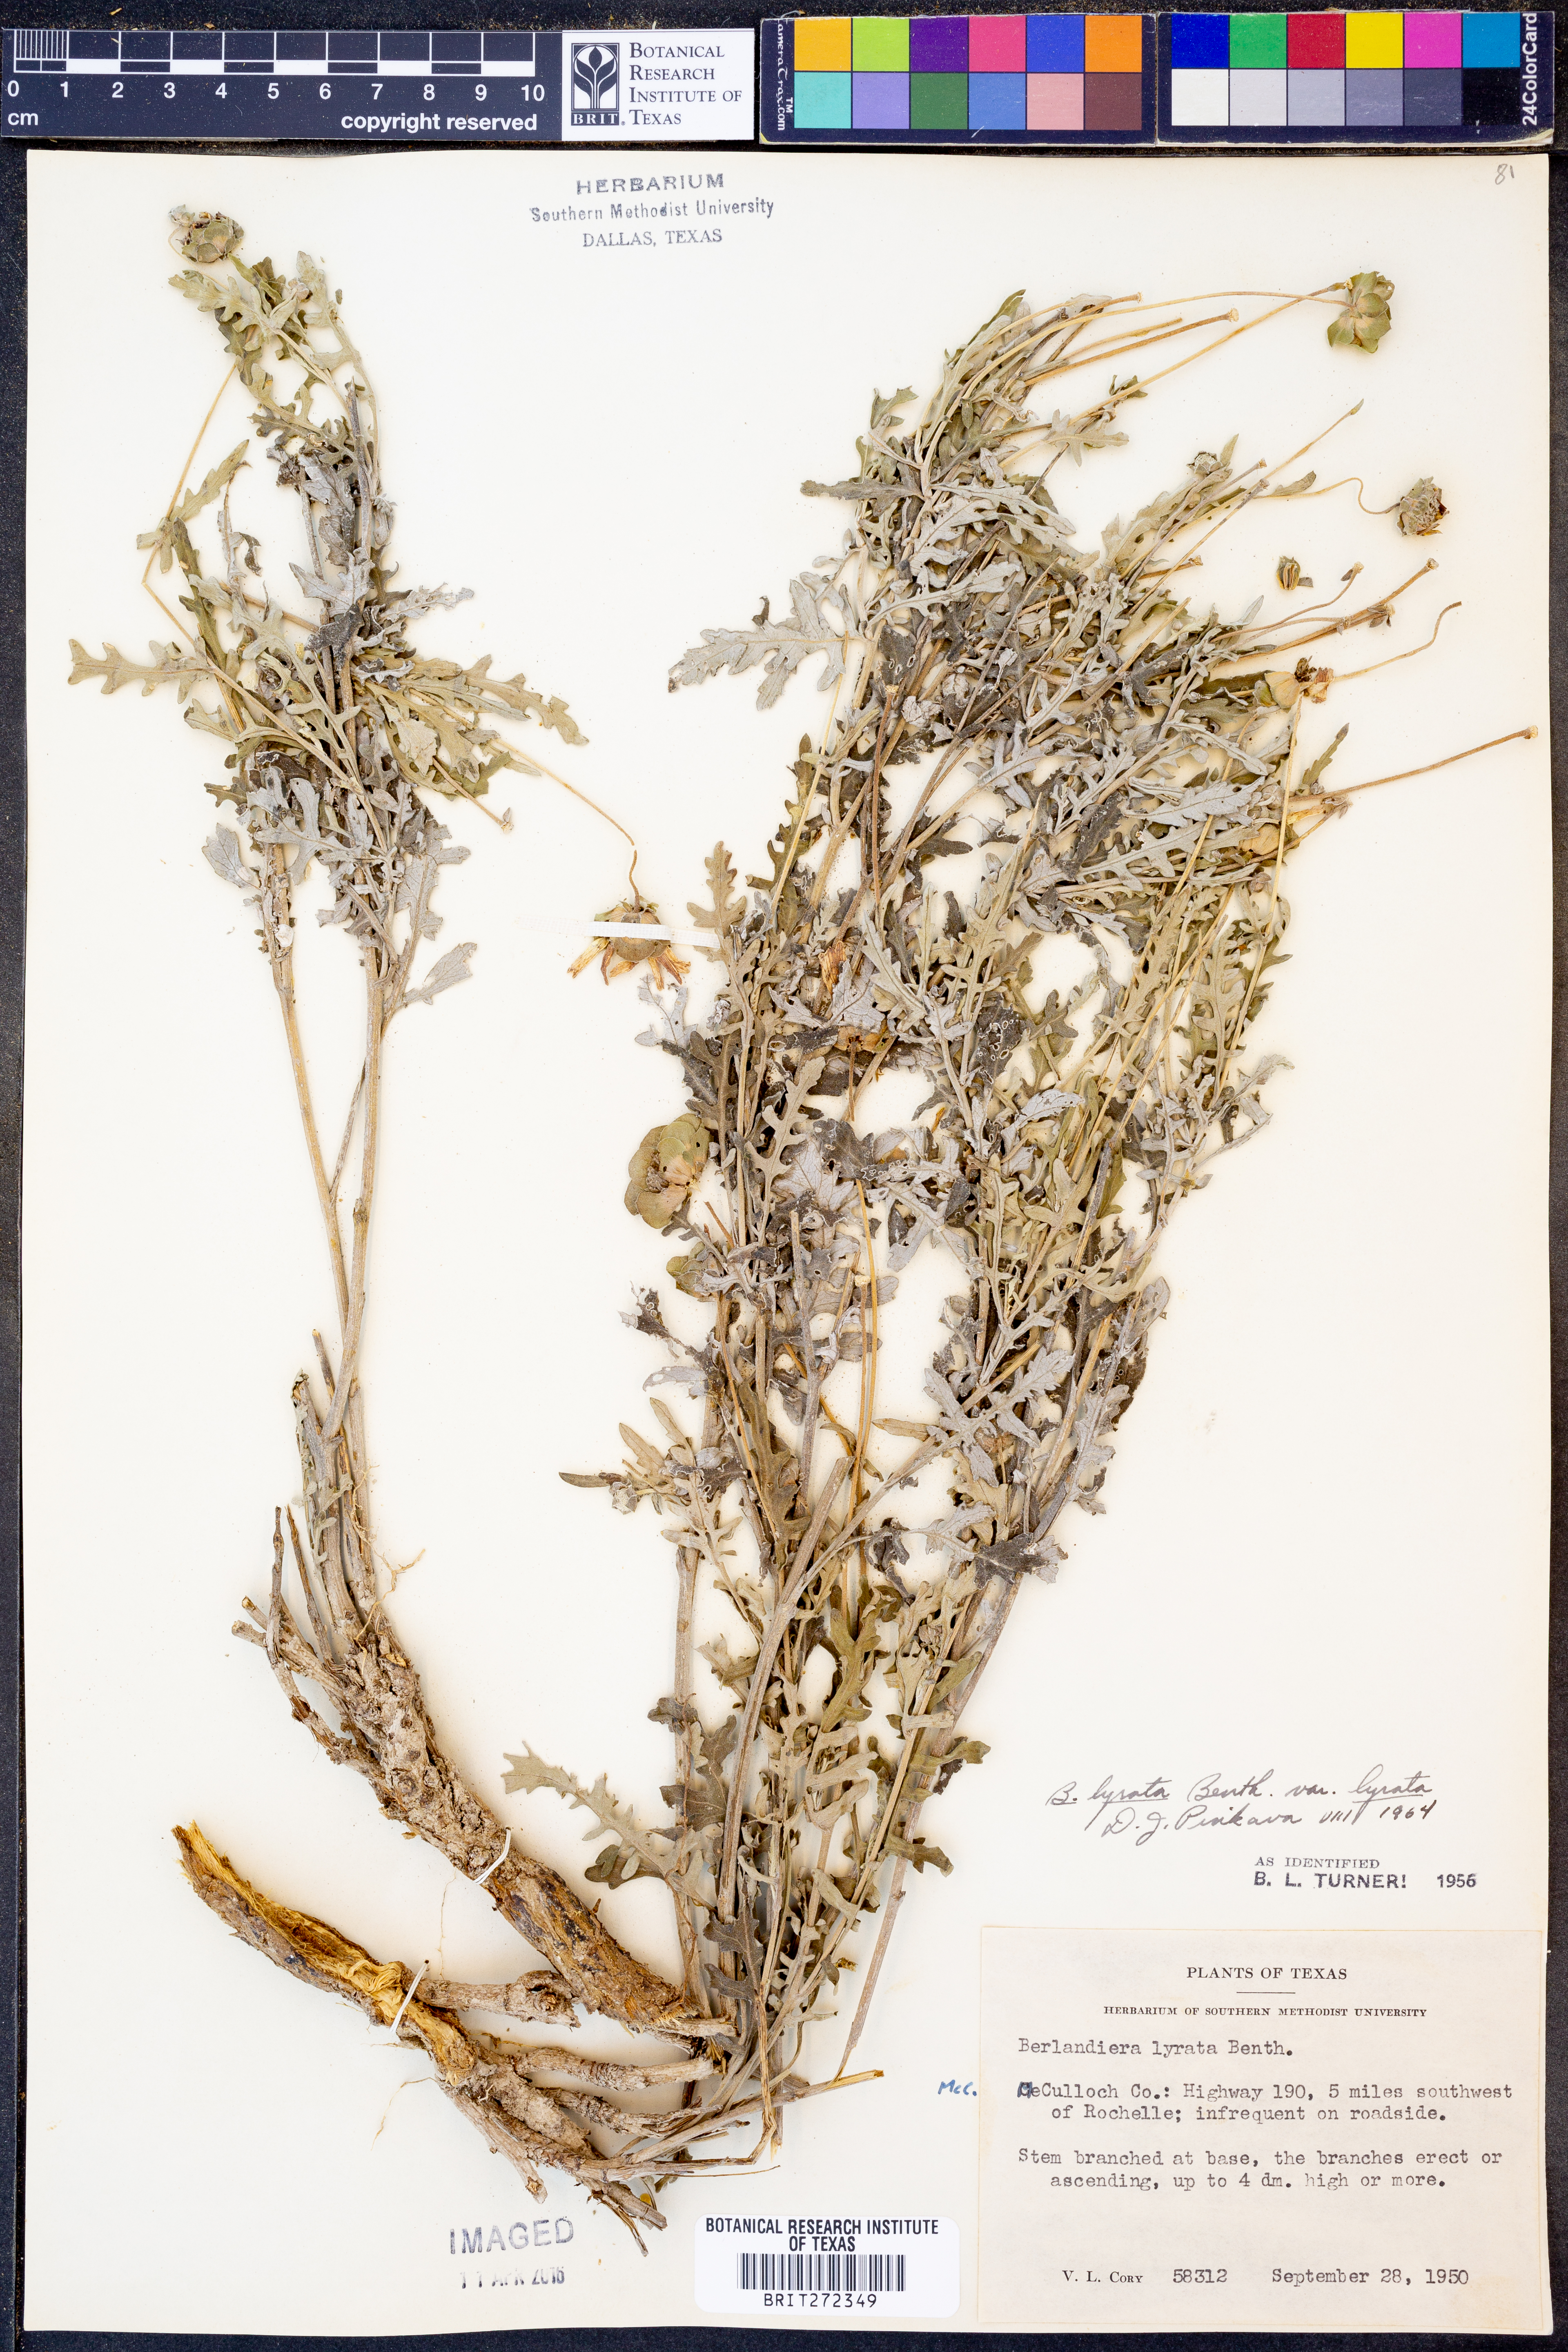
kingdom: Plantae
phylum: Tracheophyta
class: Magnoliopsida
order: Asterales
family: Asteraceae
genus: Berlandiera
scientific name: Berlandiera lyrata
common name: Chocolate-flower
